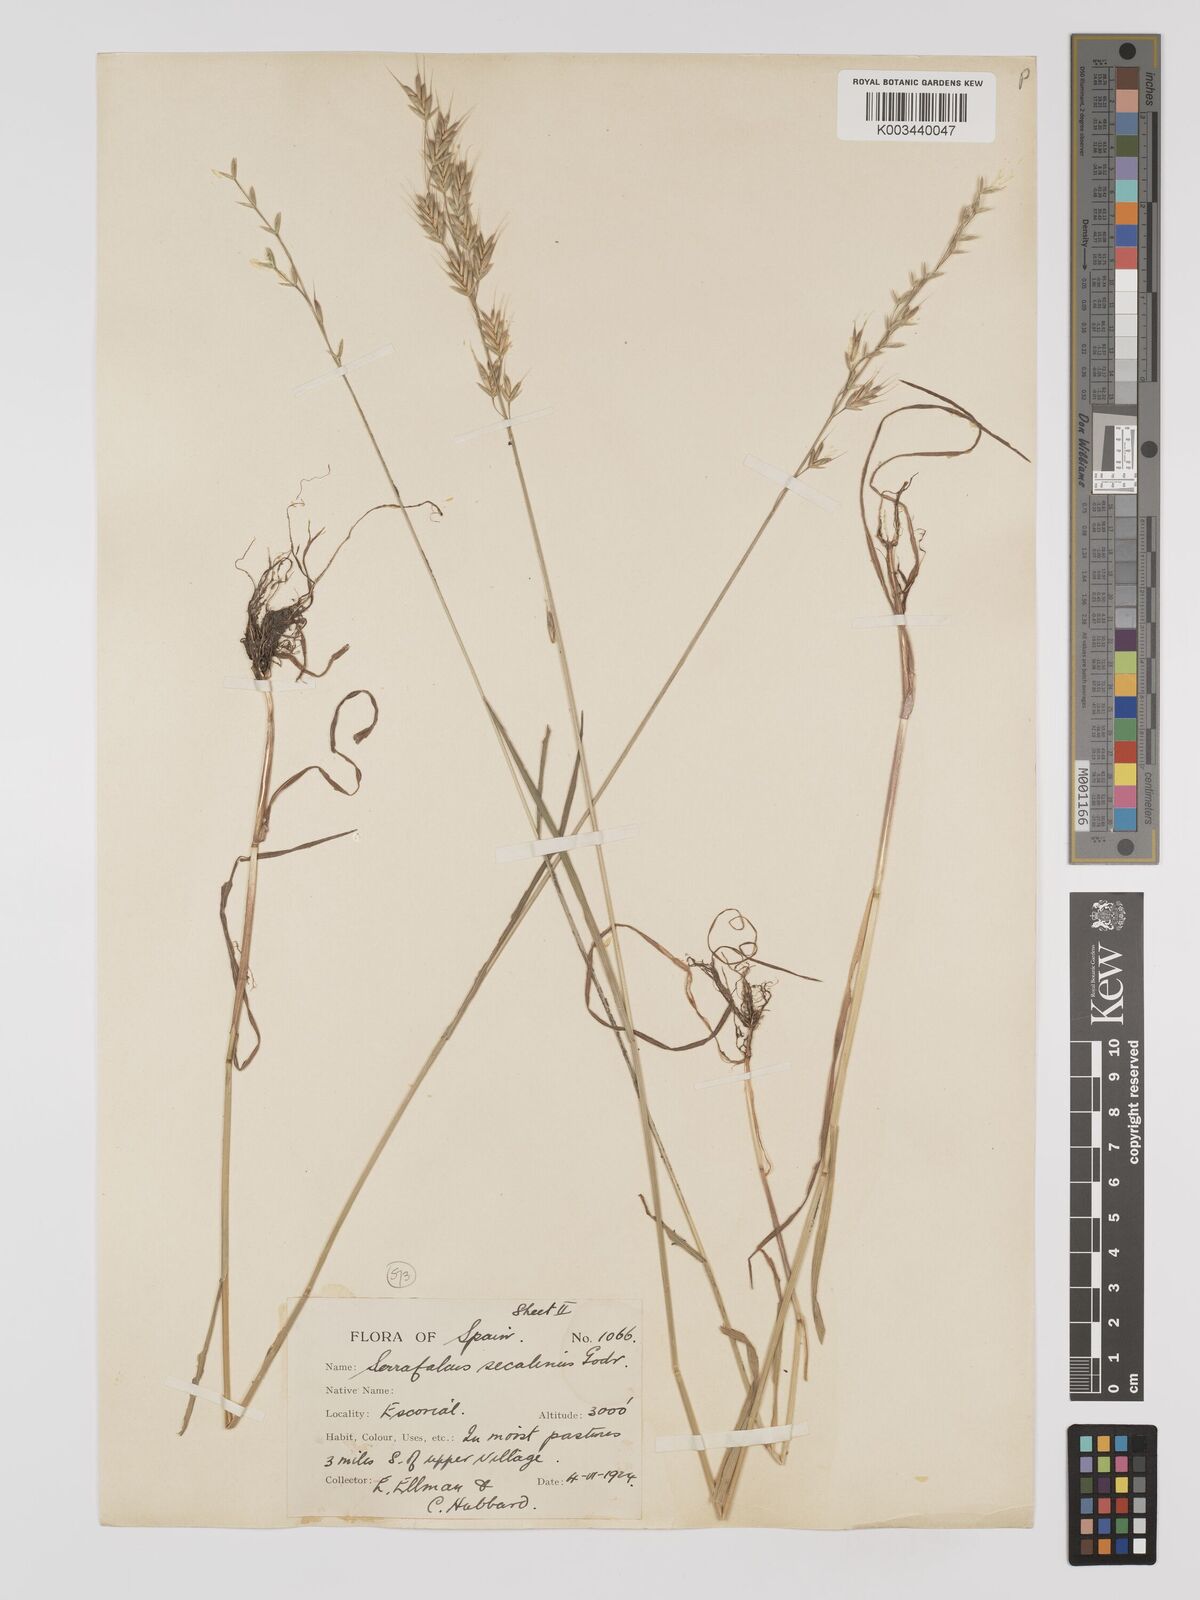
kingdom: Plantae
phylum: Tracheophyta
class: Liliopsida
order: Poales
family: Poaceae
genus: Bromus
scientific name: Bromus secalinus
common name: Rye brome
